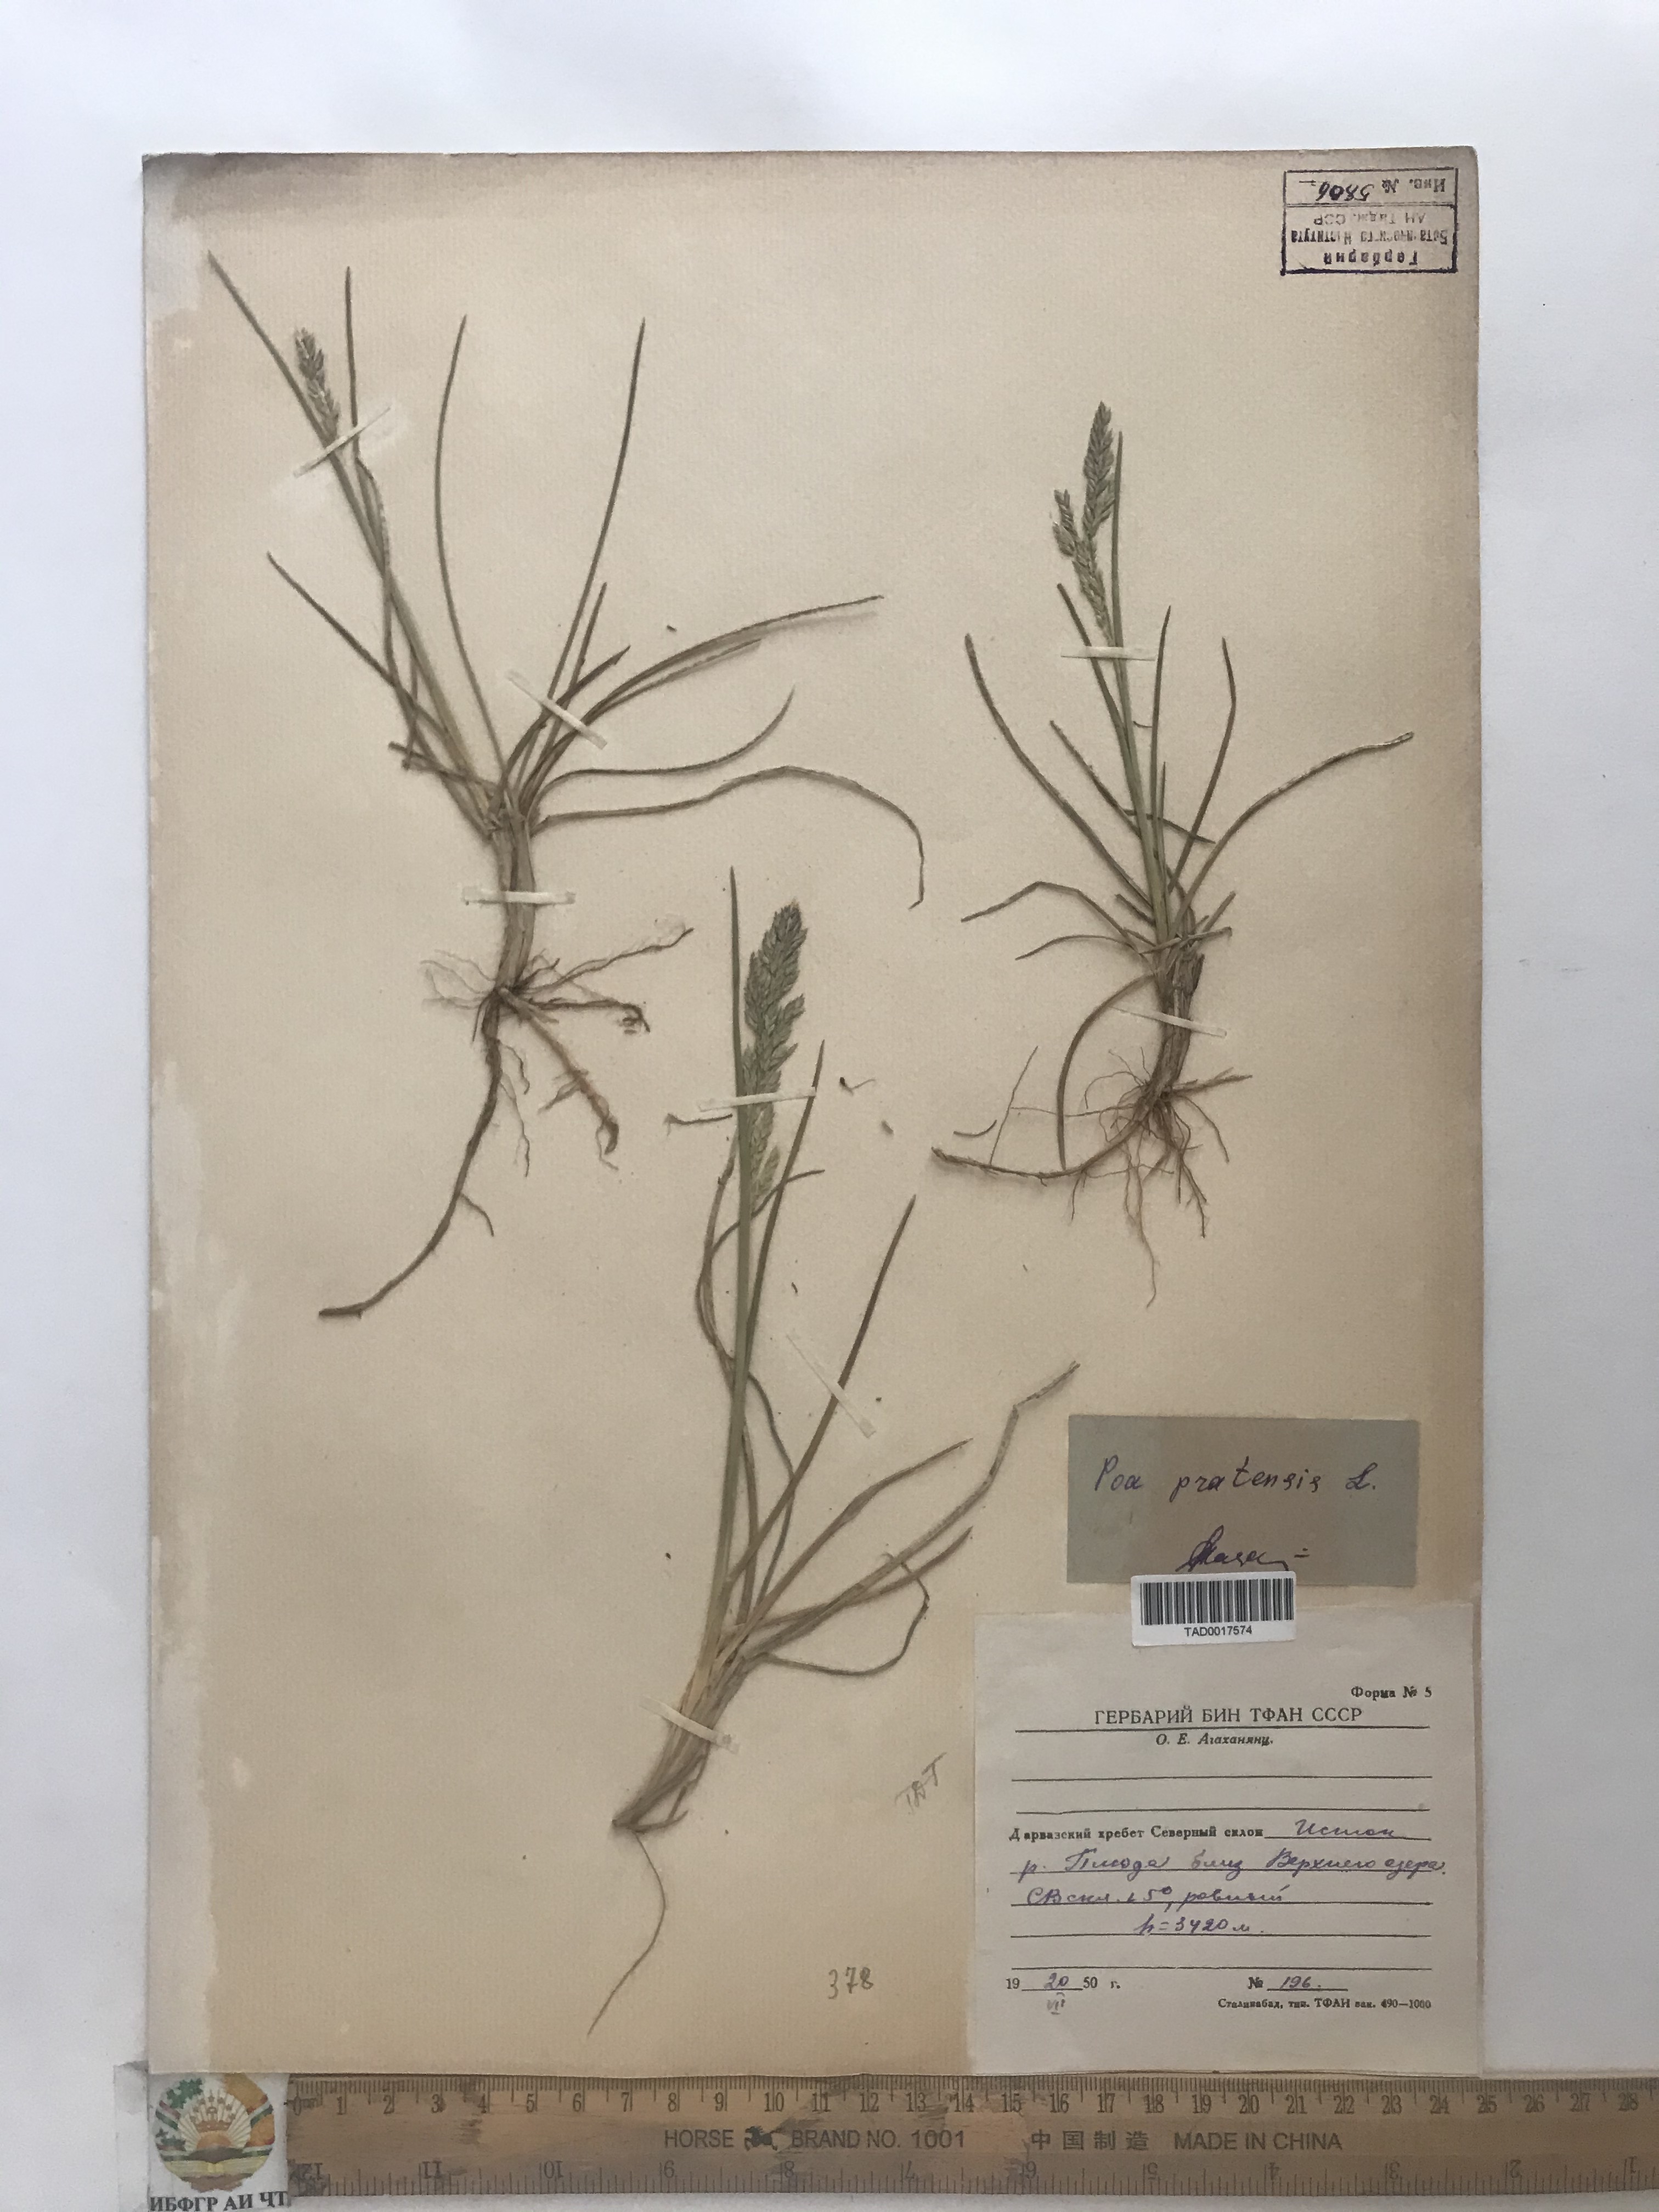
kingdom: Plantae
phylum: Tracheophyta
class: Liliopsida
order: Poales
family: Poaceae
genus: Poa
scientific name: Poa pratensis
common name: Kentucky bluegrass
